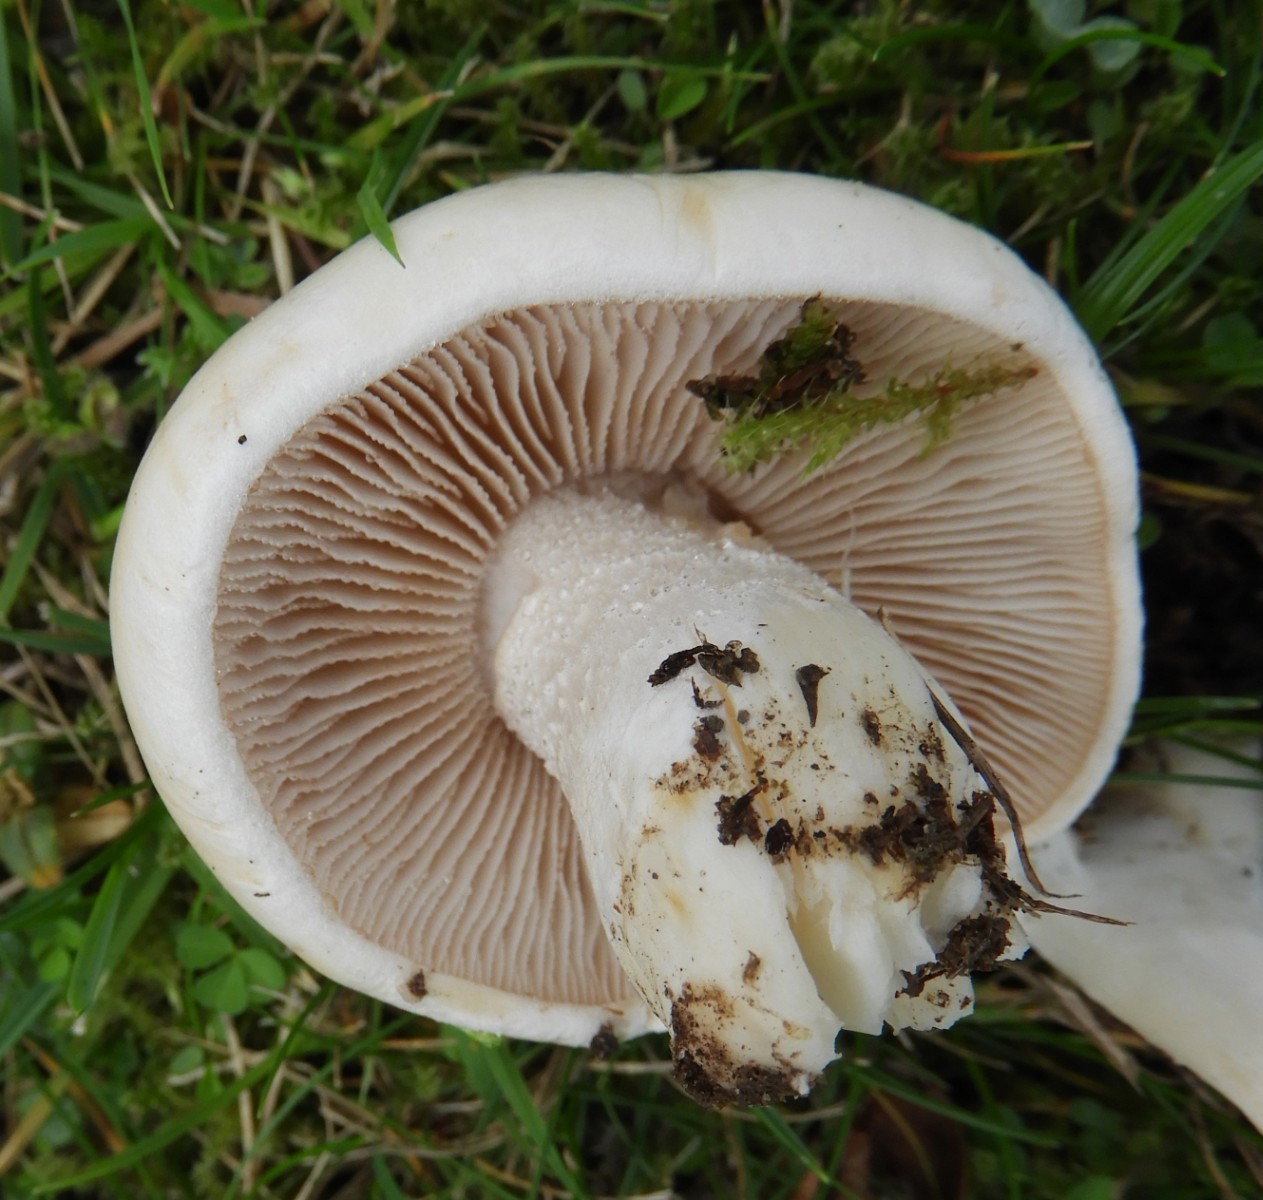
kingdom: Fungi
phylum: Basidiomycota
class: Agaricomycetes
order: Agaricales
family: Hymenogastraceae
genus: Hebeloma
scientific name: Hebeloma crustuliniforme
